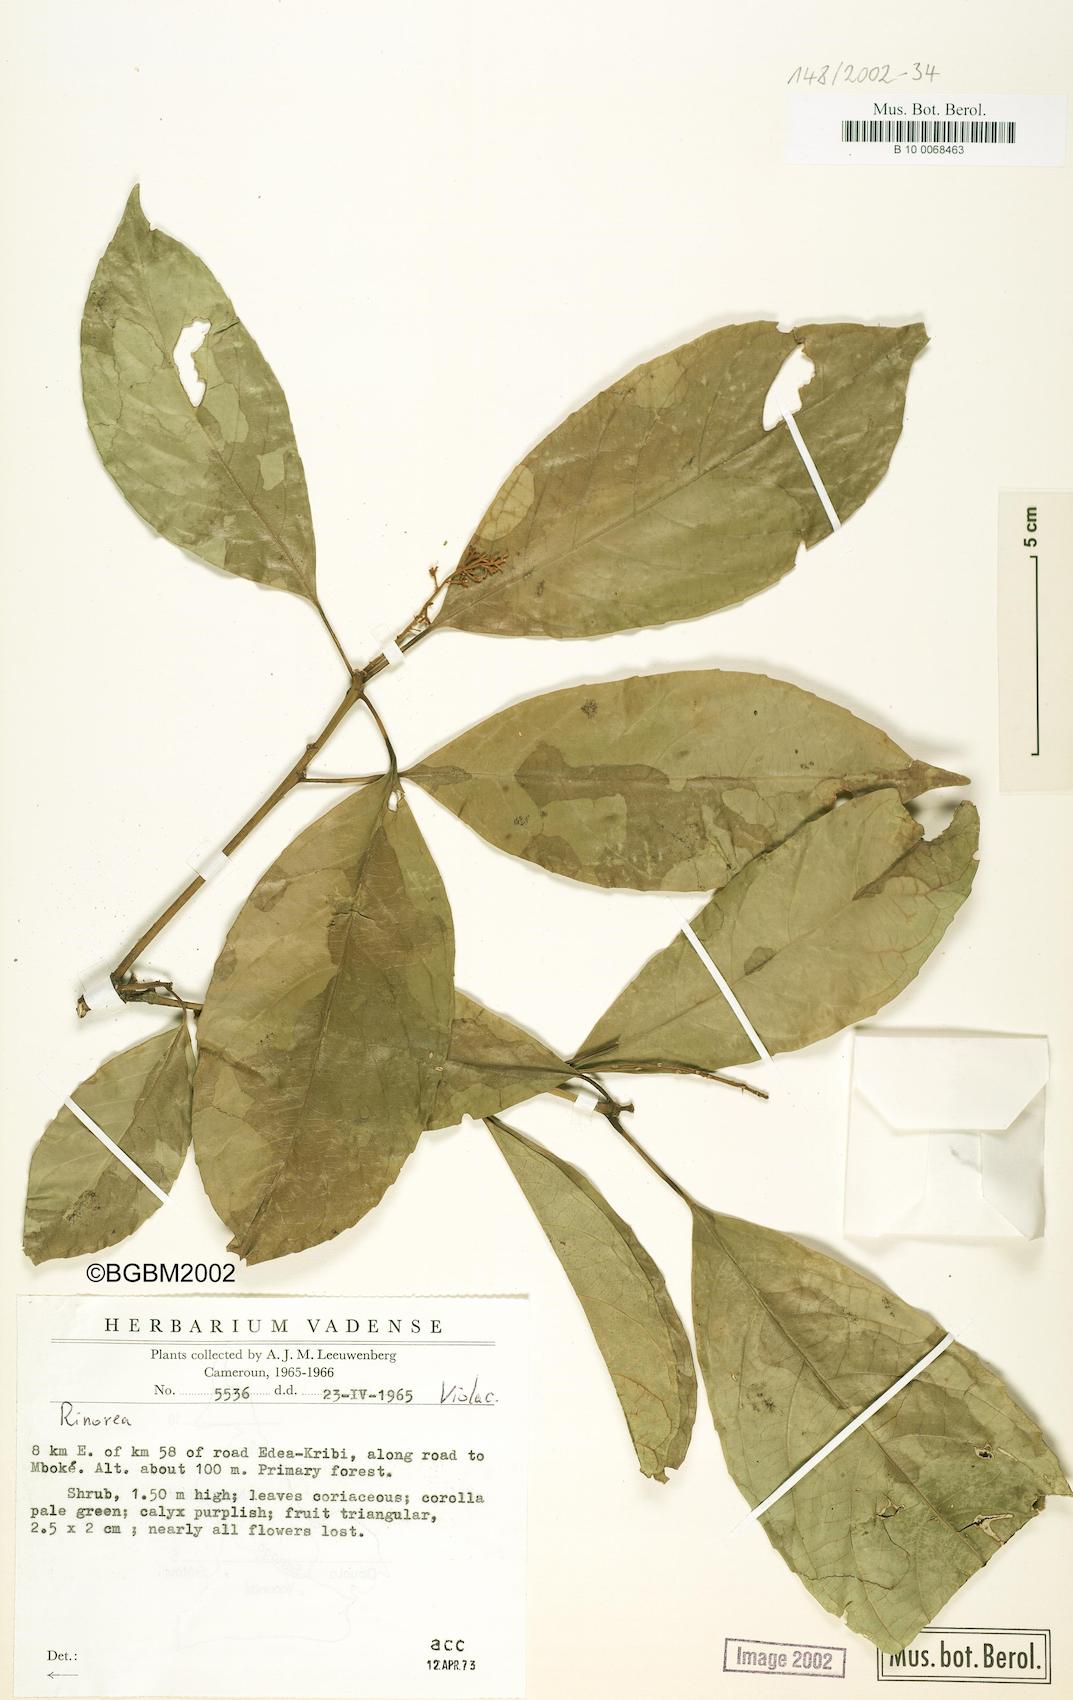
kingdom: Plantae
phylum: Tracheophyta
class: Magnoliopsida
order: Malpighiales
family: Violaceae
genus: Rinorea
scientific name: Rinorea
